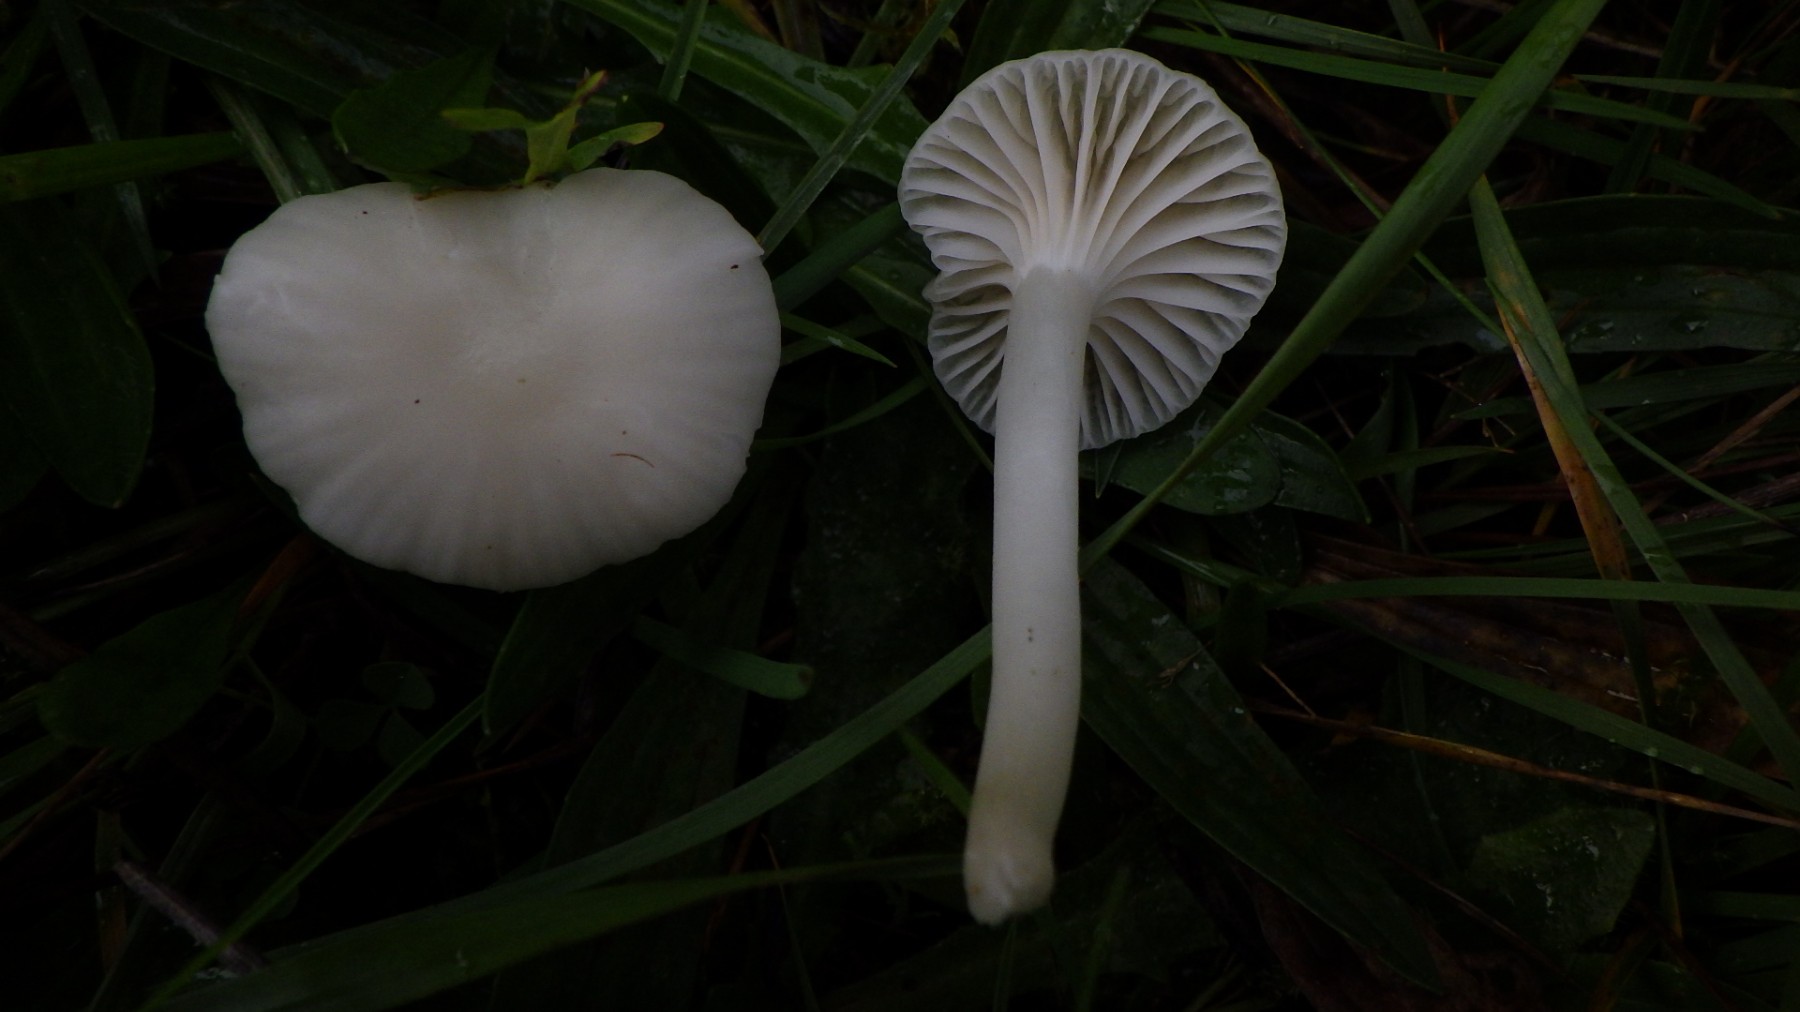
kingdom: Fungi
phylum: Basidiomycota
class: Agaricomycetes
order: Agaricales
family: Hygrophoraceae
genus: Cuphophyllus
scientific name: Cuphophyllus
